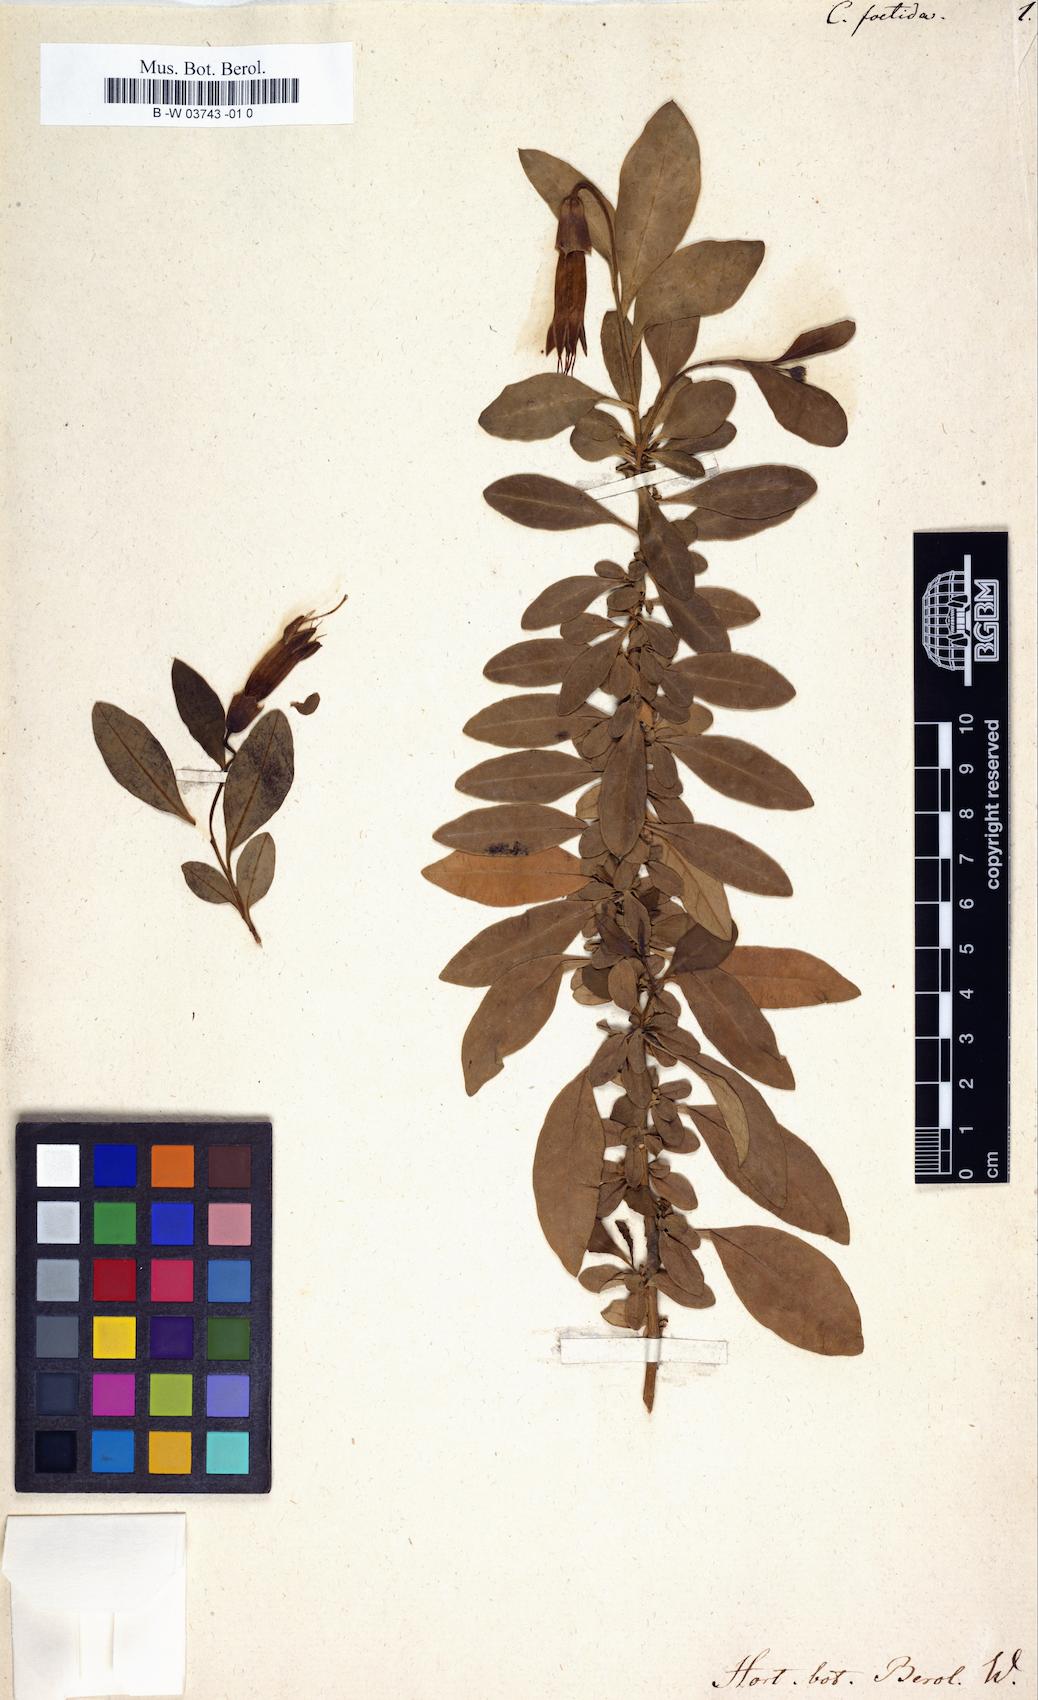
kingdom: Plantae
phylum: Tracheophyta
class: Magnoliopsida
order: Solanales
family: Solanaceae
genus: Vestia
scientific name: Vestia foetida
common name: Huevil
